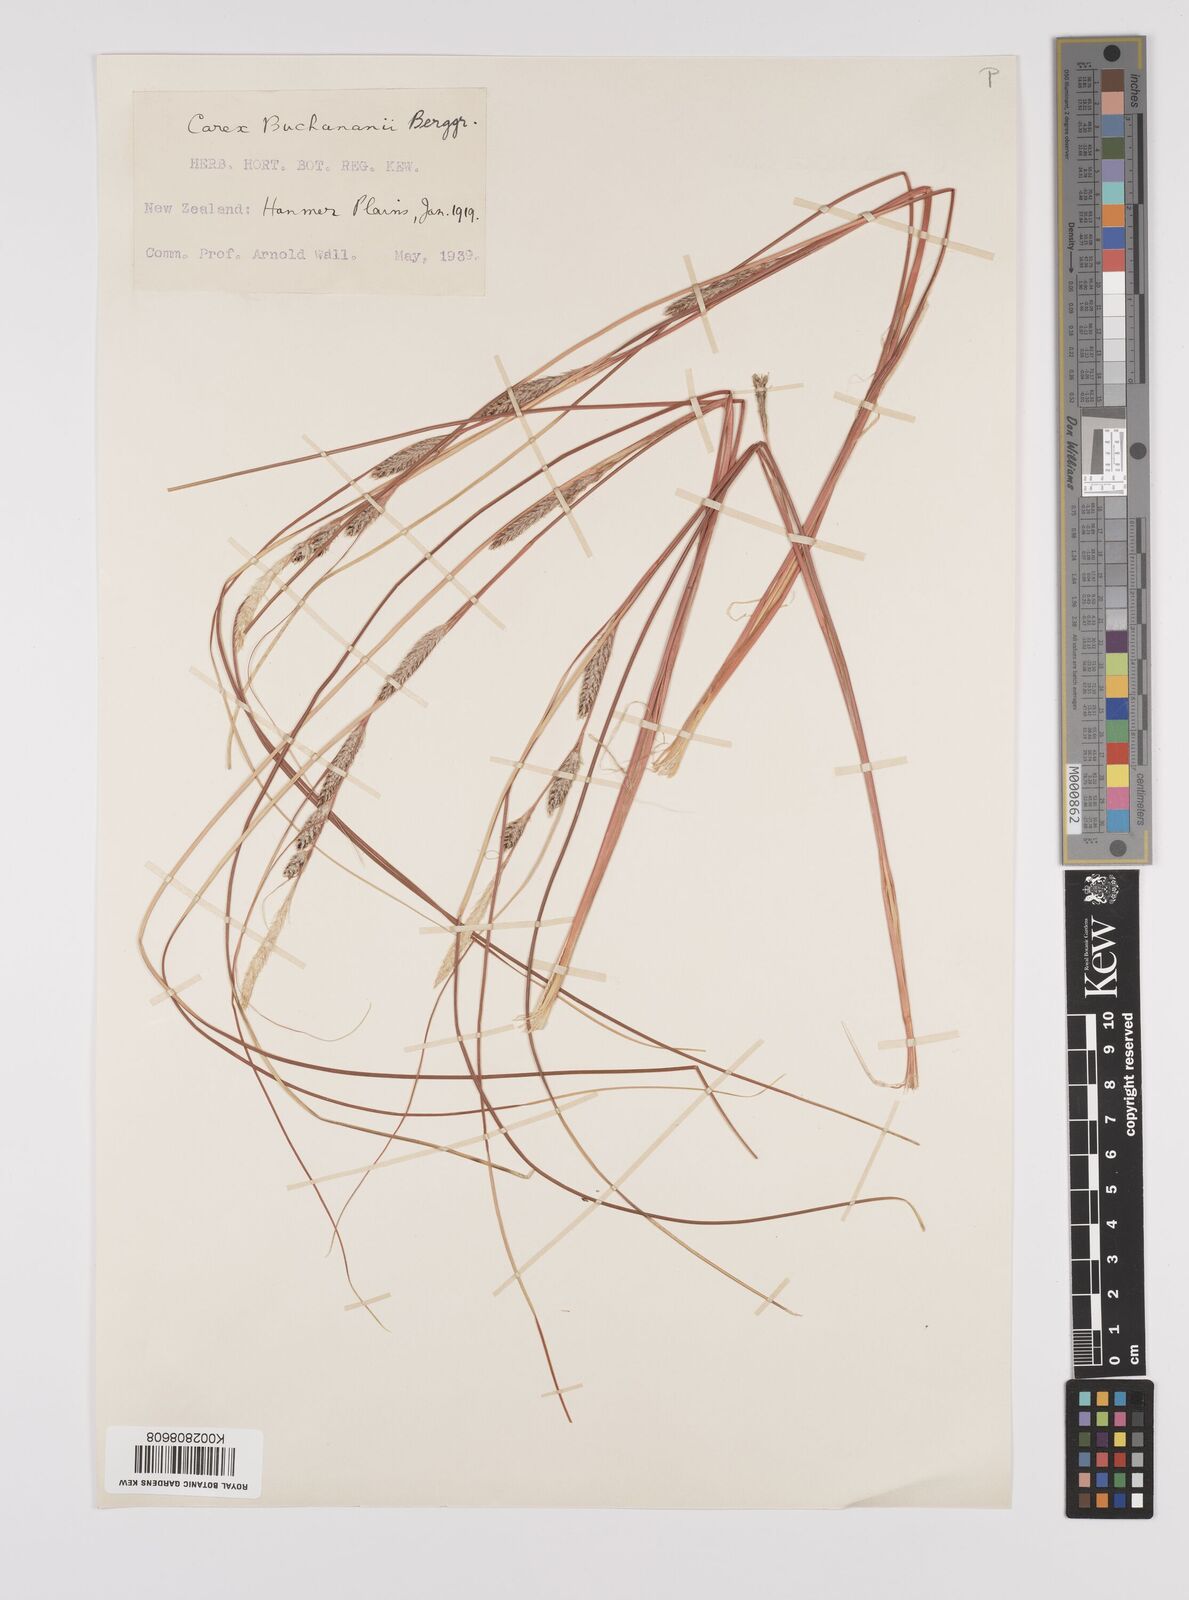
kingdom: Plantae
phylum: Tracheophyta
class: Liliopsida
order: Poales
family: Cyperaceae
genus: Carex
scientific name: Carex flagellifera
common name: Glen murray tussock
